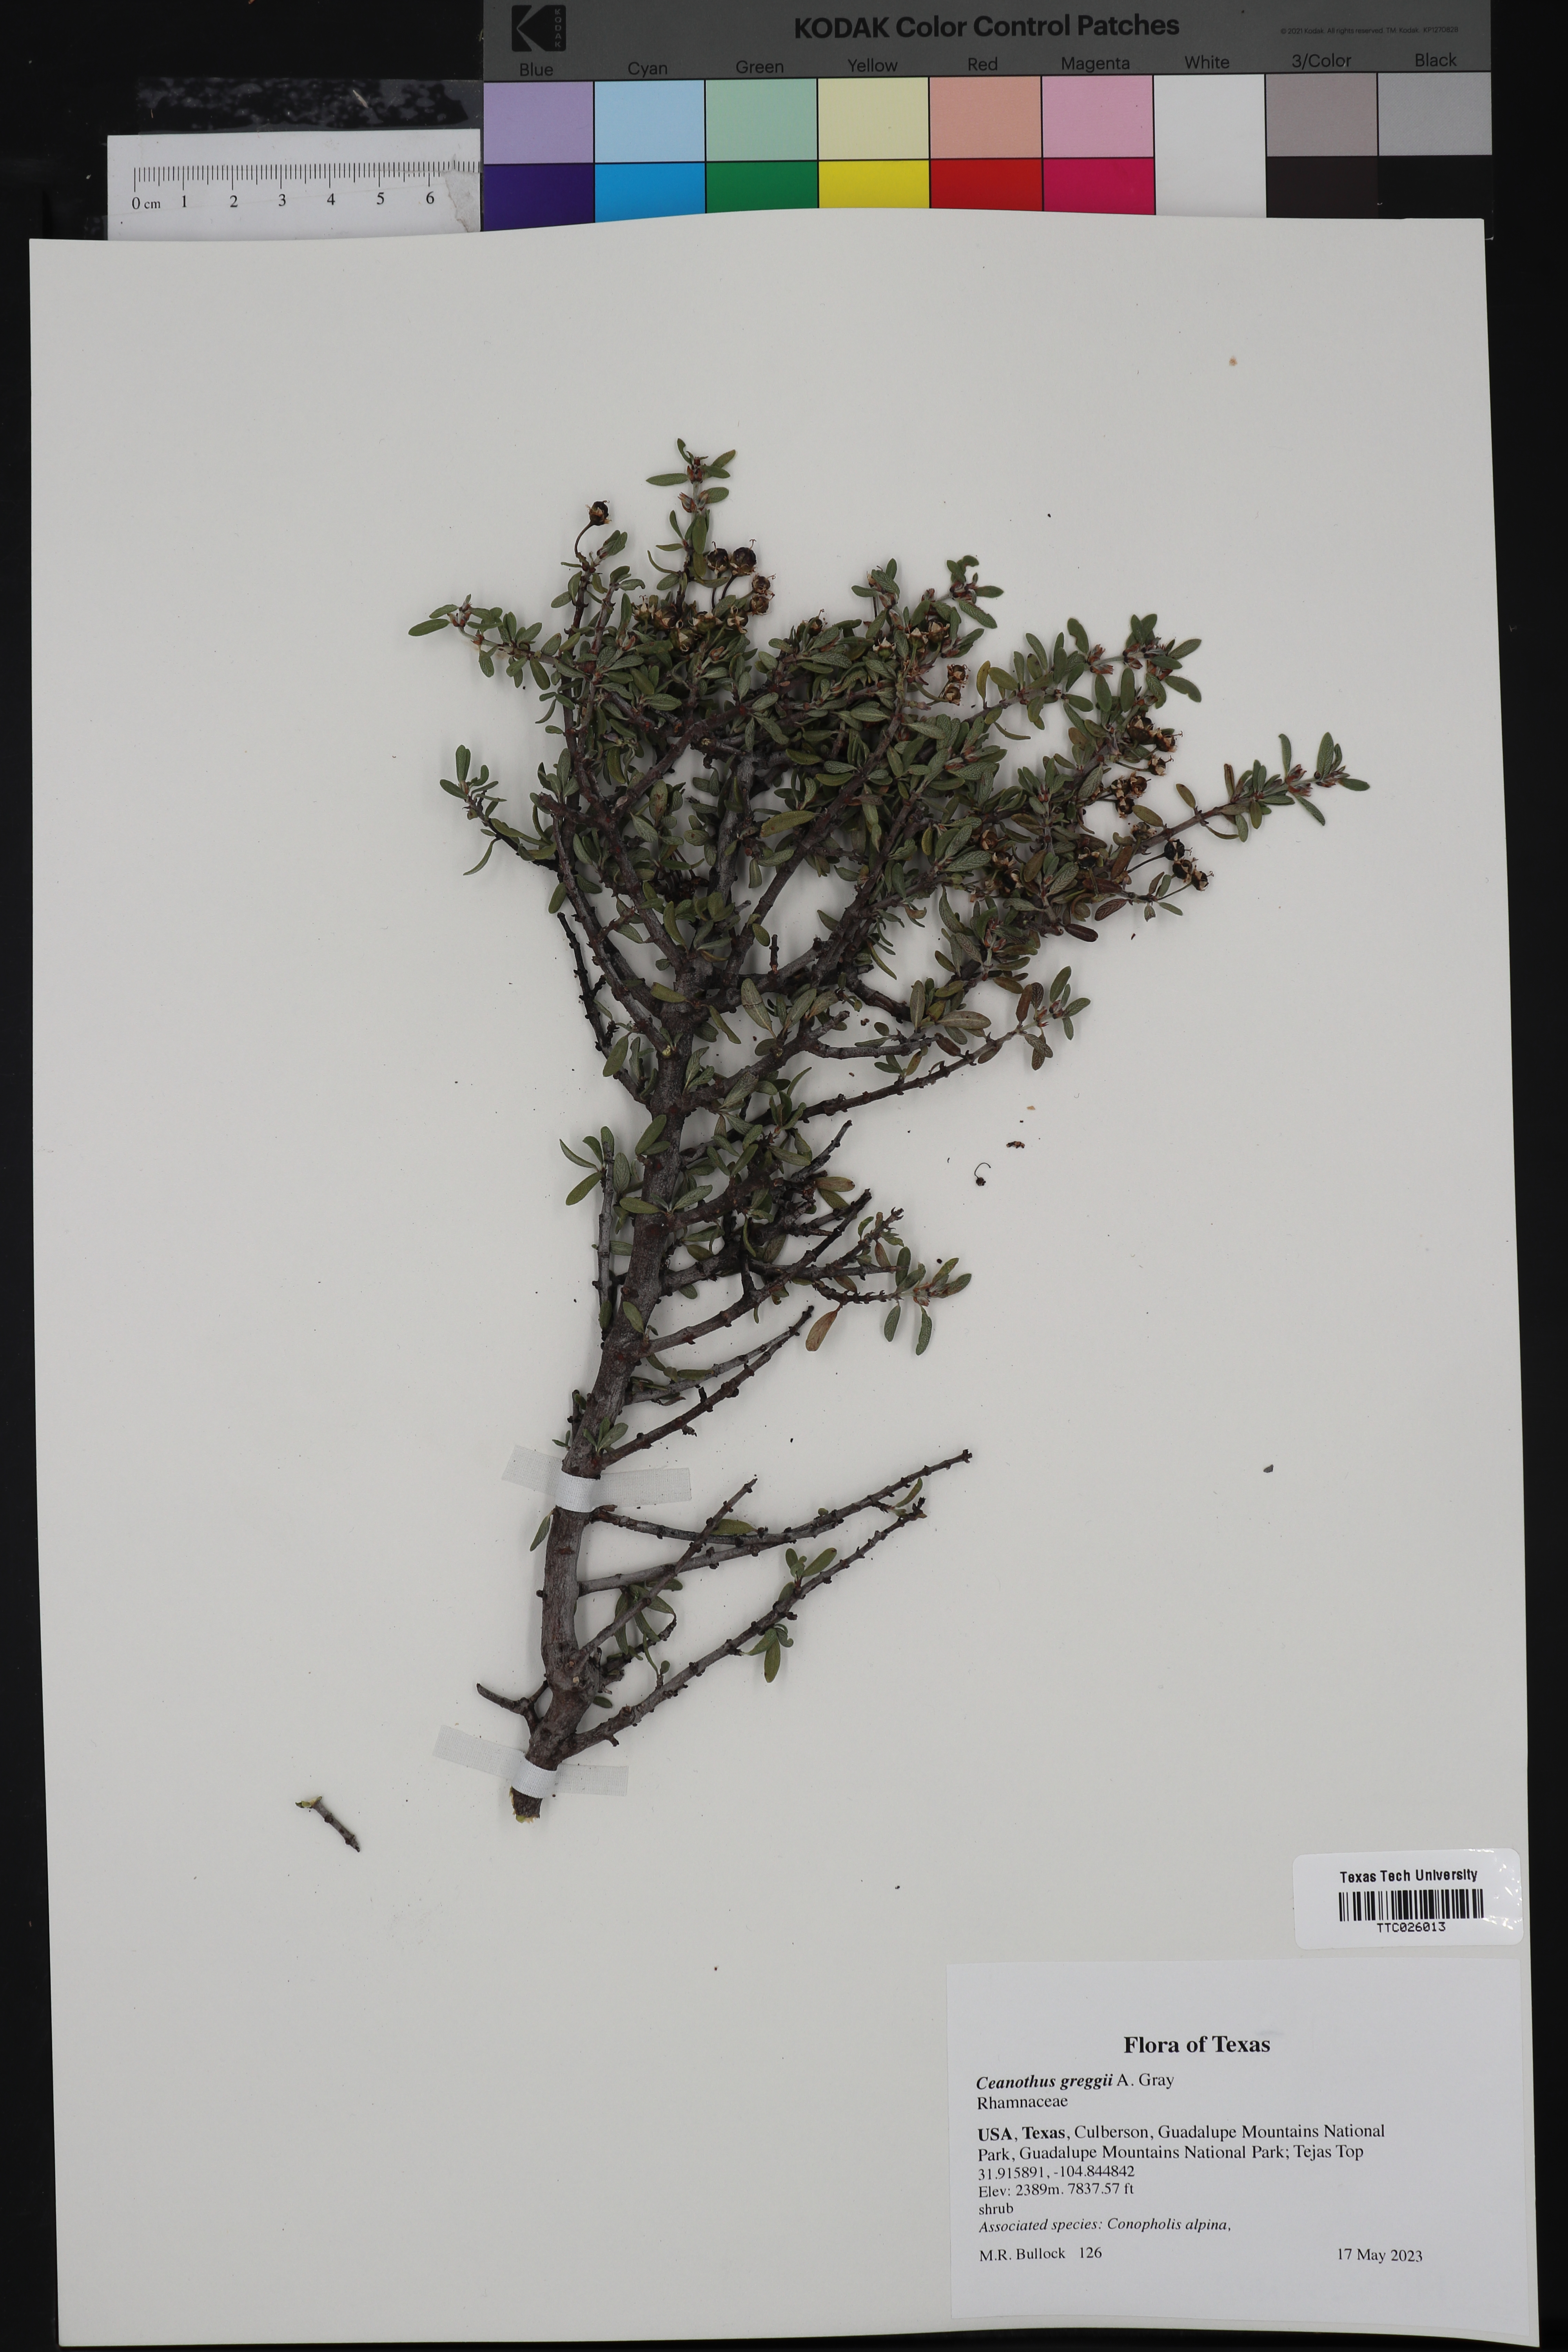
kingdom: Plantae
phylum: Tracheophyta
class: Magnoliopsida
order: Rosales
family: Rhamnaceae
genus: Ceanothus
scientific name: Ceanothus pauciflorus
